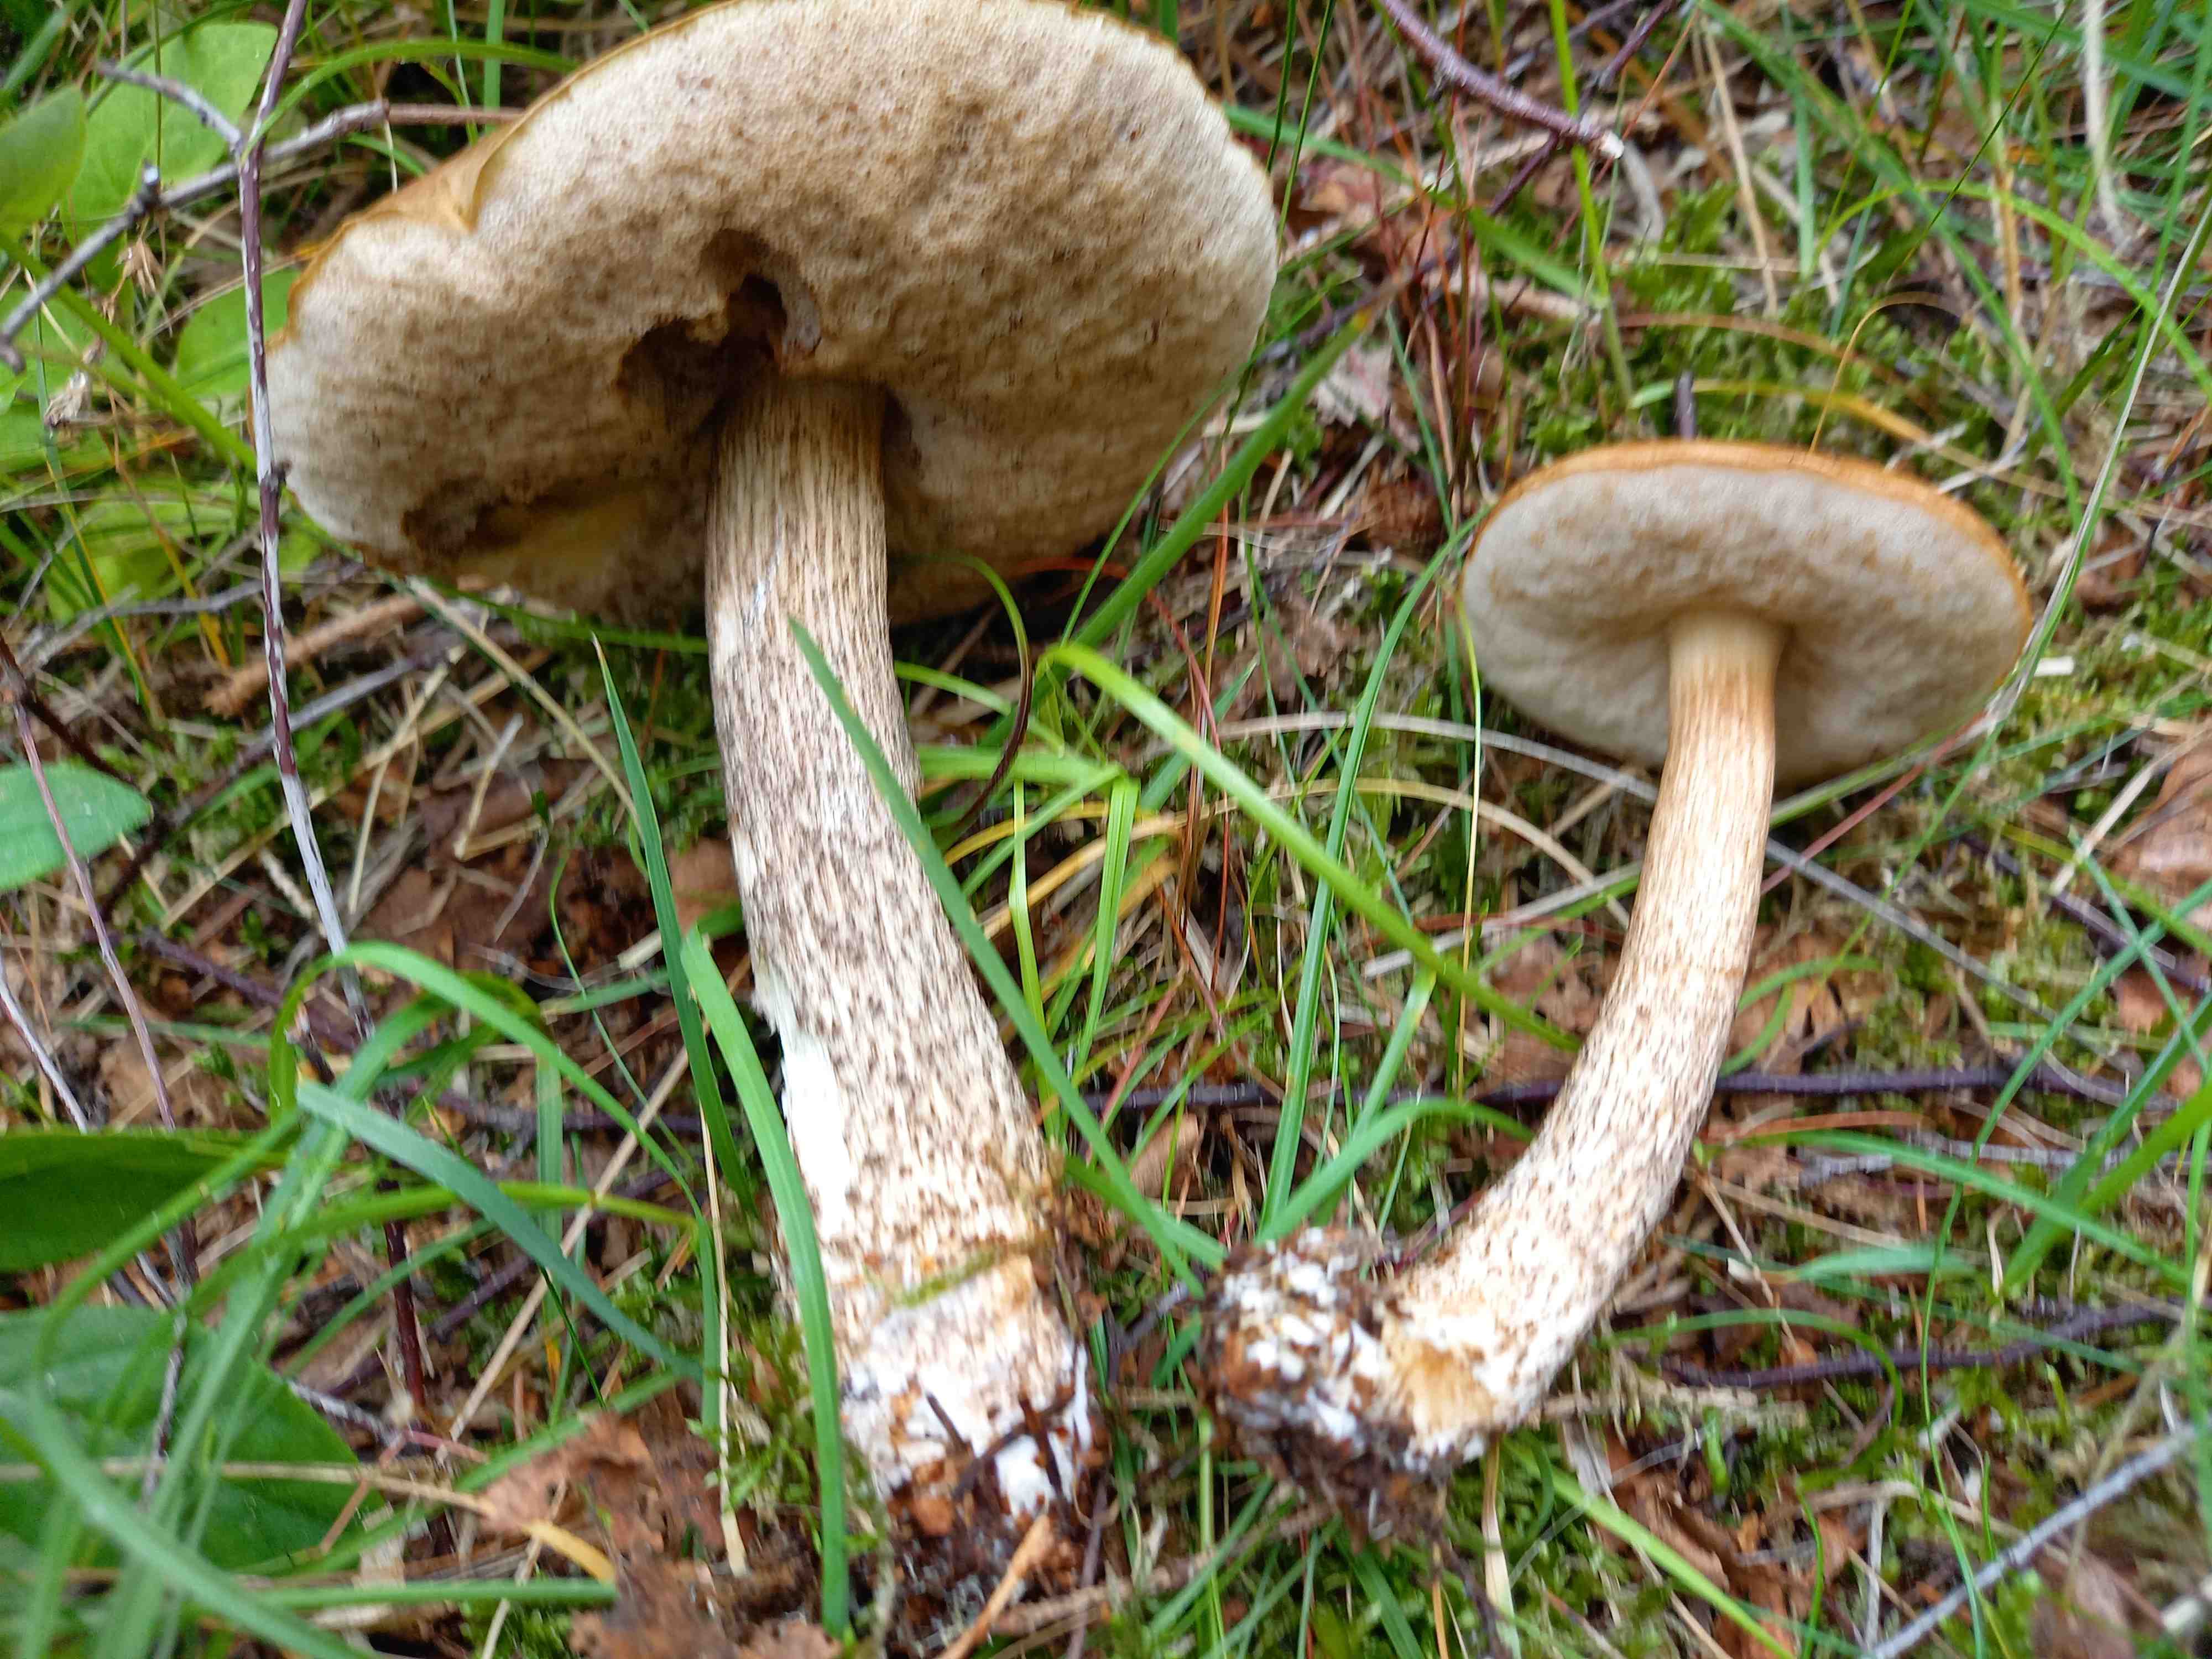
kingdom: Fungi
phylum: Basidiomycota
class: Agaricomycetes
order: Boletales
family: Boletaceae
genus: Leccinum
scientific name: Leccinum scabrum
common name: brun skælrørhat
